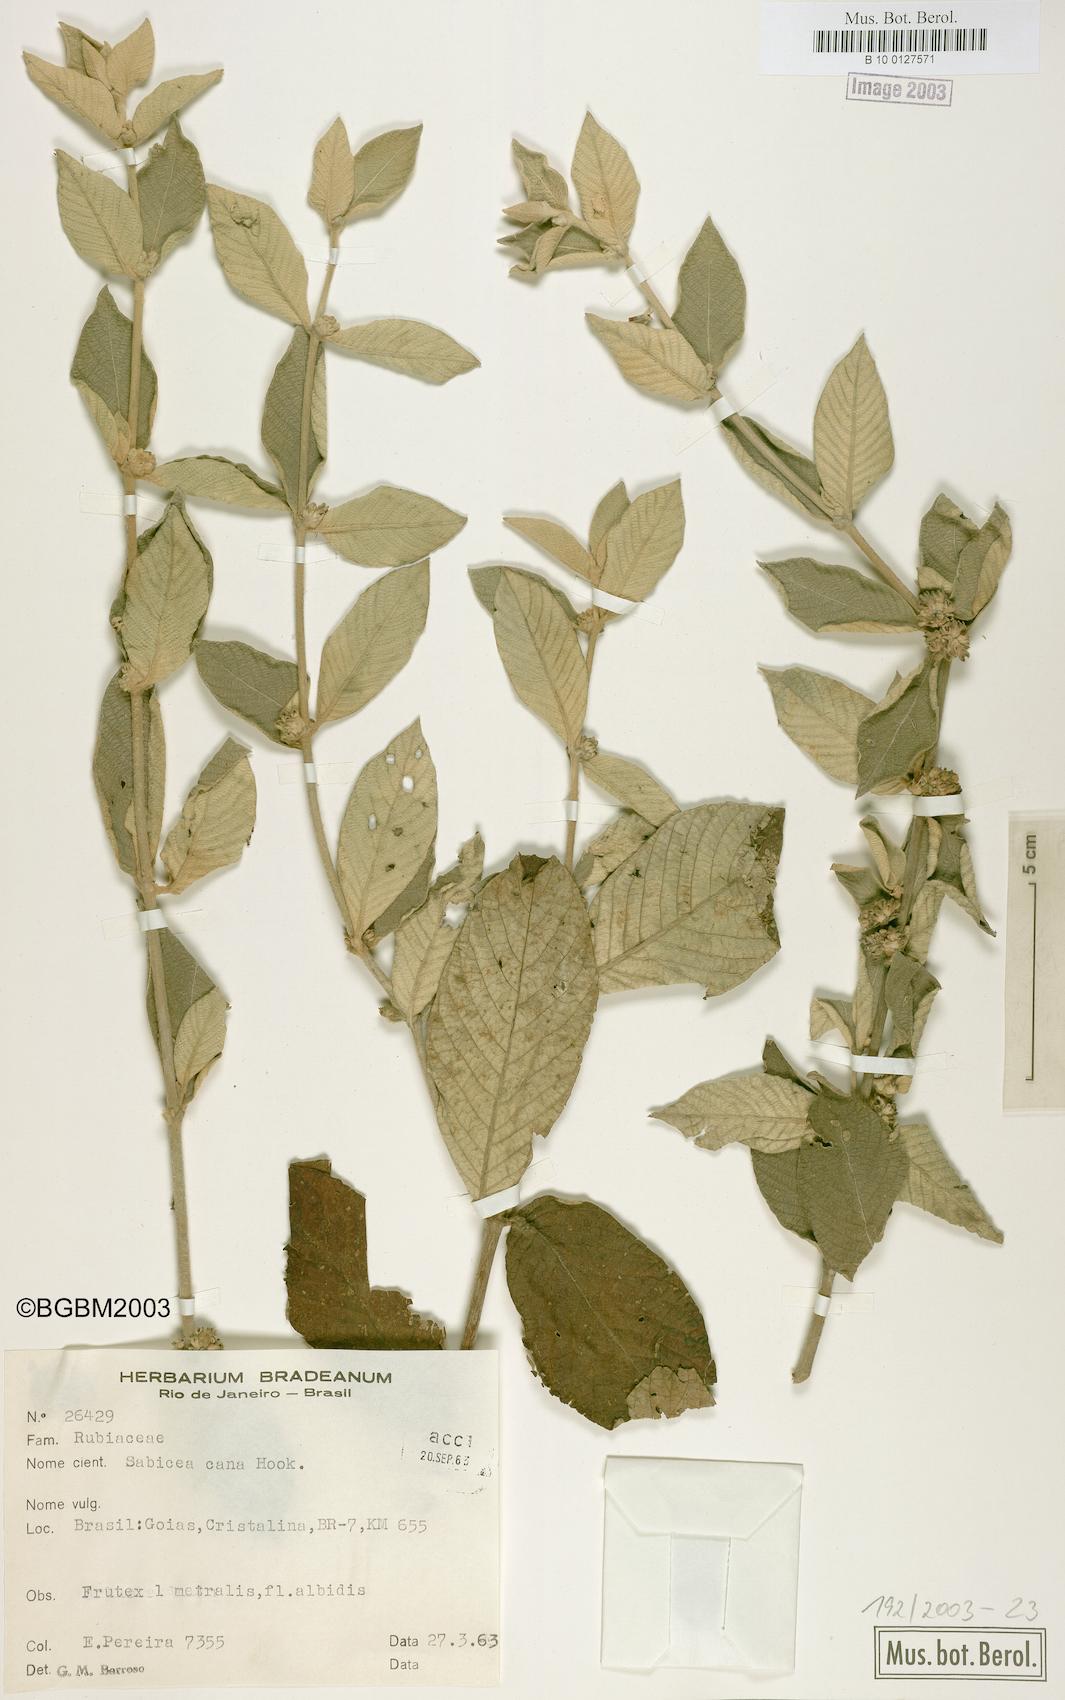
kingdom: Plantae
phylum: Tracheophyta
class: Magnoliopsida
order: Gentianales
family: Rubiaceae
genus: Sabicea
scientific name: Sabicea cana
